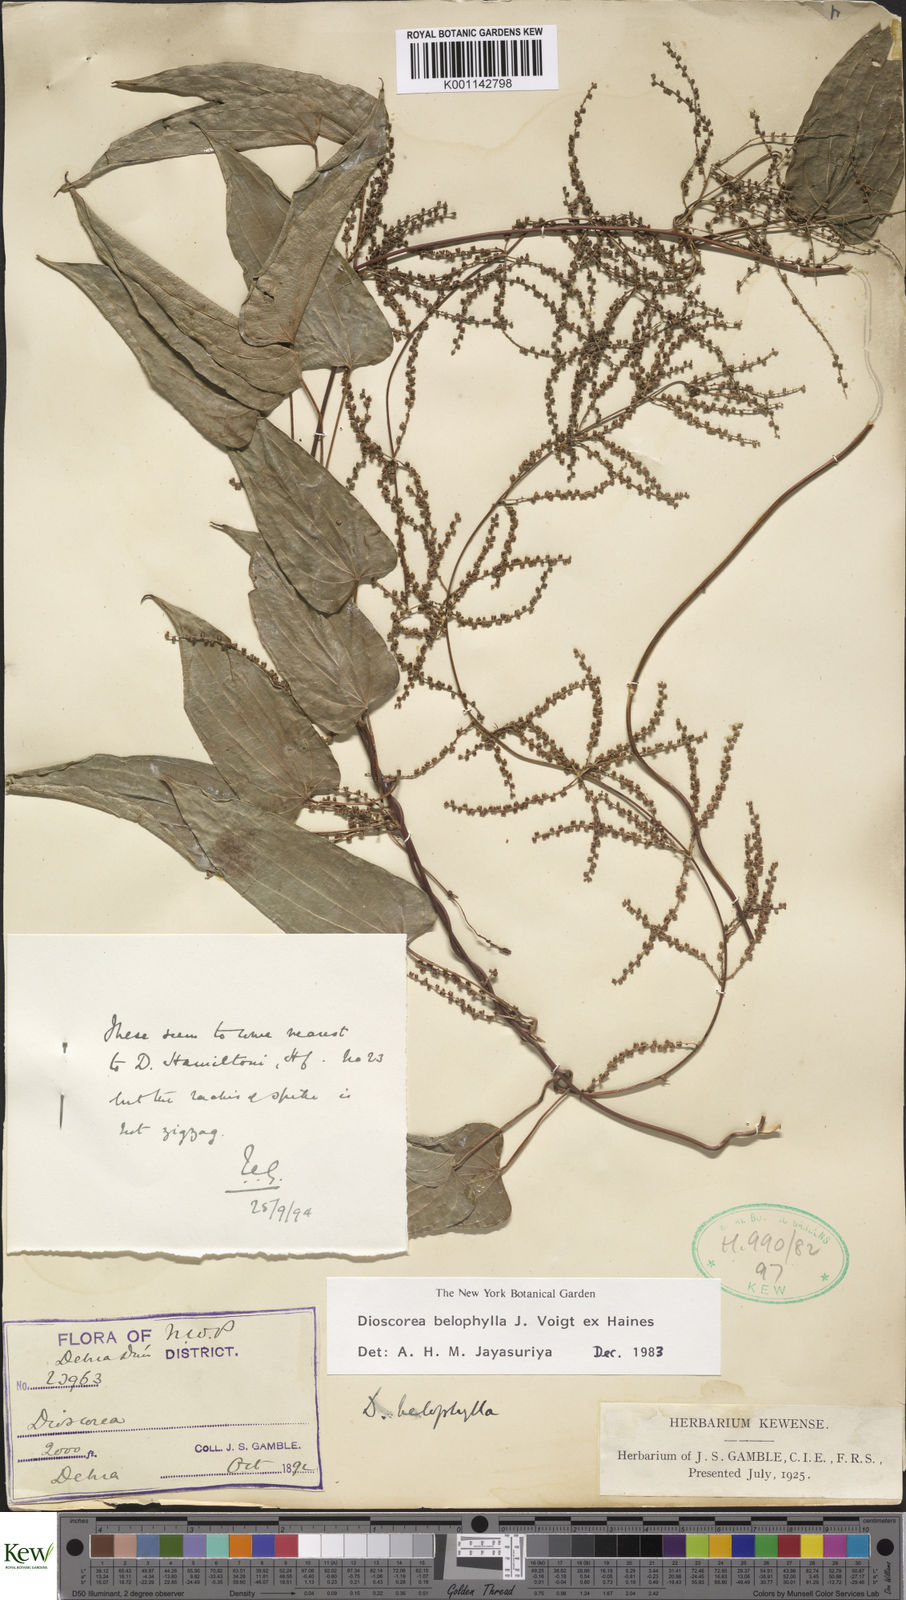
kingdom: Plantae
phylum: Tracheophyta
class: Liliopsida
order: Dioscoreales
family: Dioscoreaceae
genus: Dioscorea
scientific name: Dioscorea belophylla
